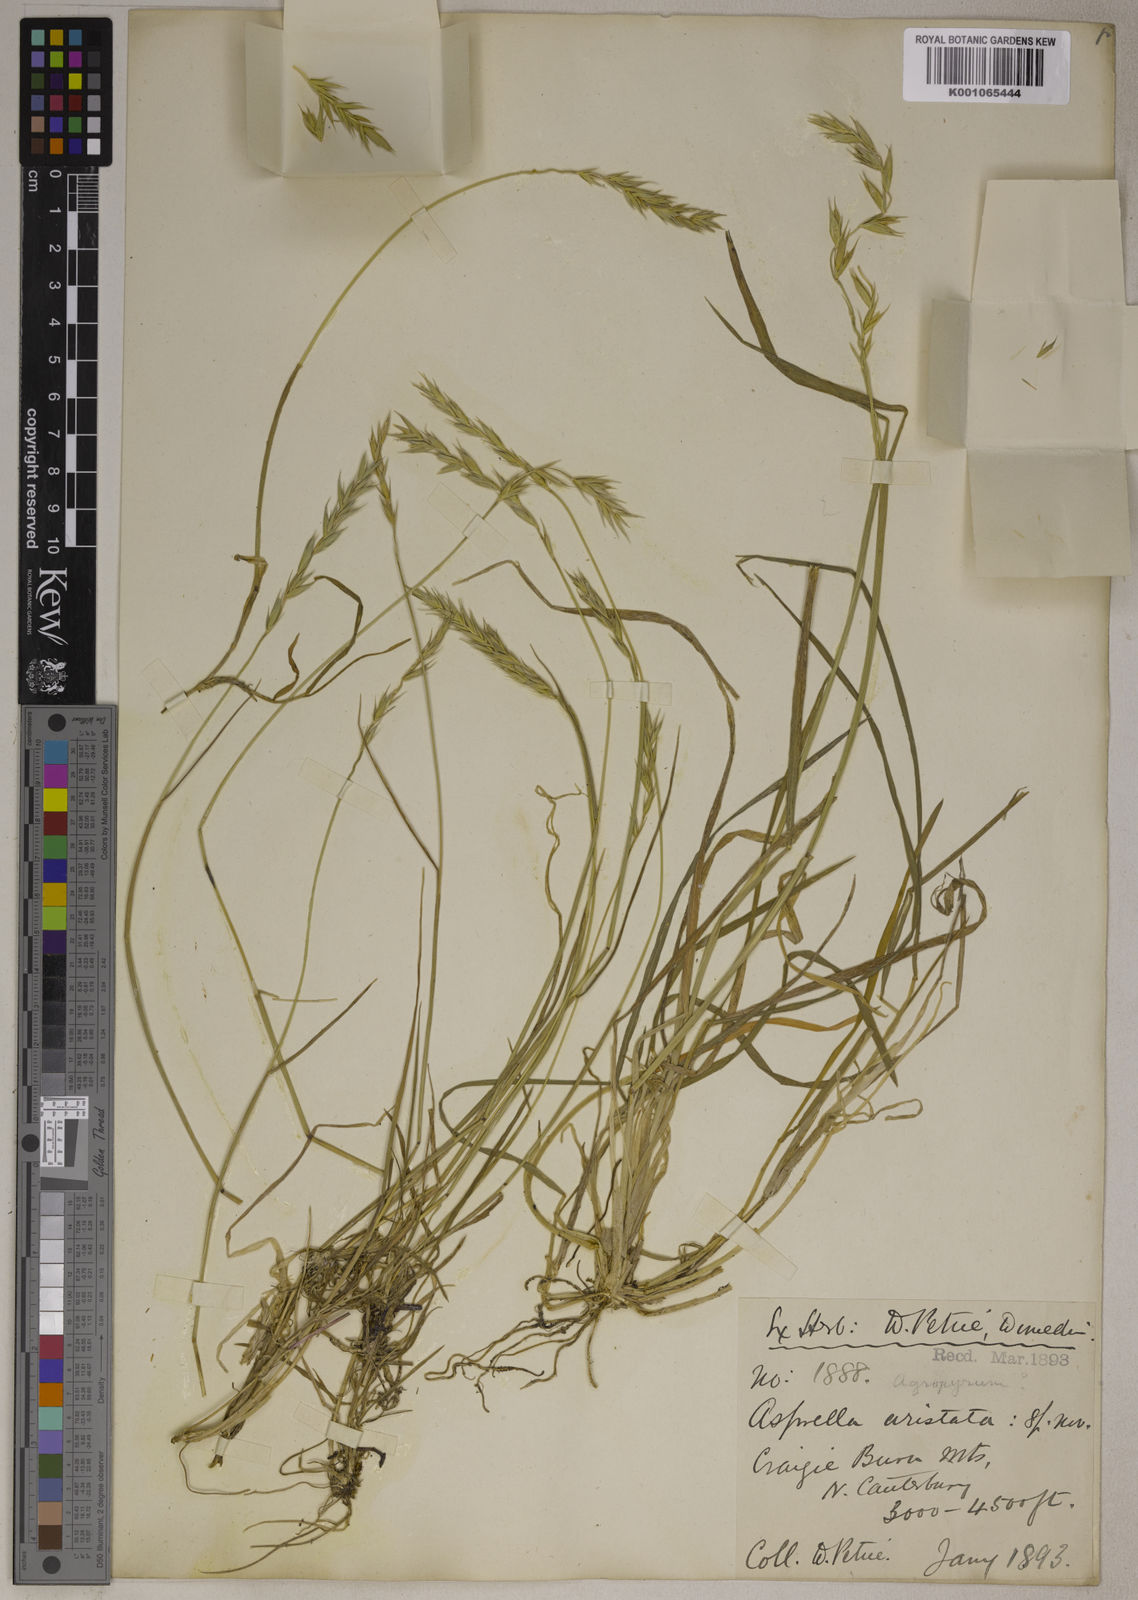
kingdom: Plantae
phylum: Tracheophyta
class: Liliopsida
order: Poales
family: Poaceae
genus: Elymus
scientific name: Elymus
